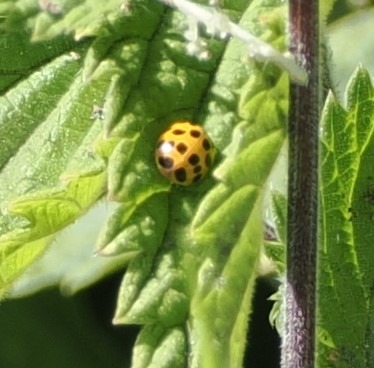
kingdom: Animalia
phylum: Arthropoda
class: Insecta
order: Coleoptera
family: Coccinellidae
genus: Harmonia
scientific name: Harmonia axyridis
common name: Harlekinmariehøne
